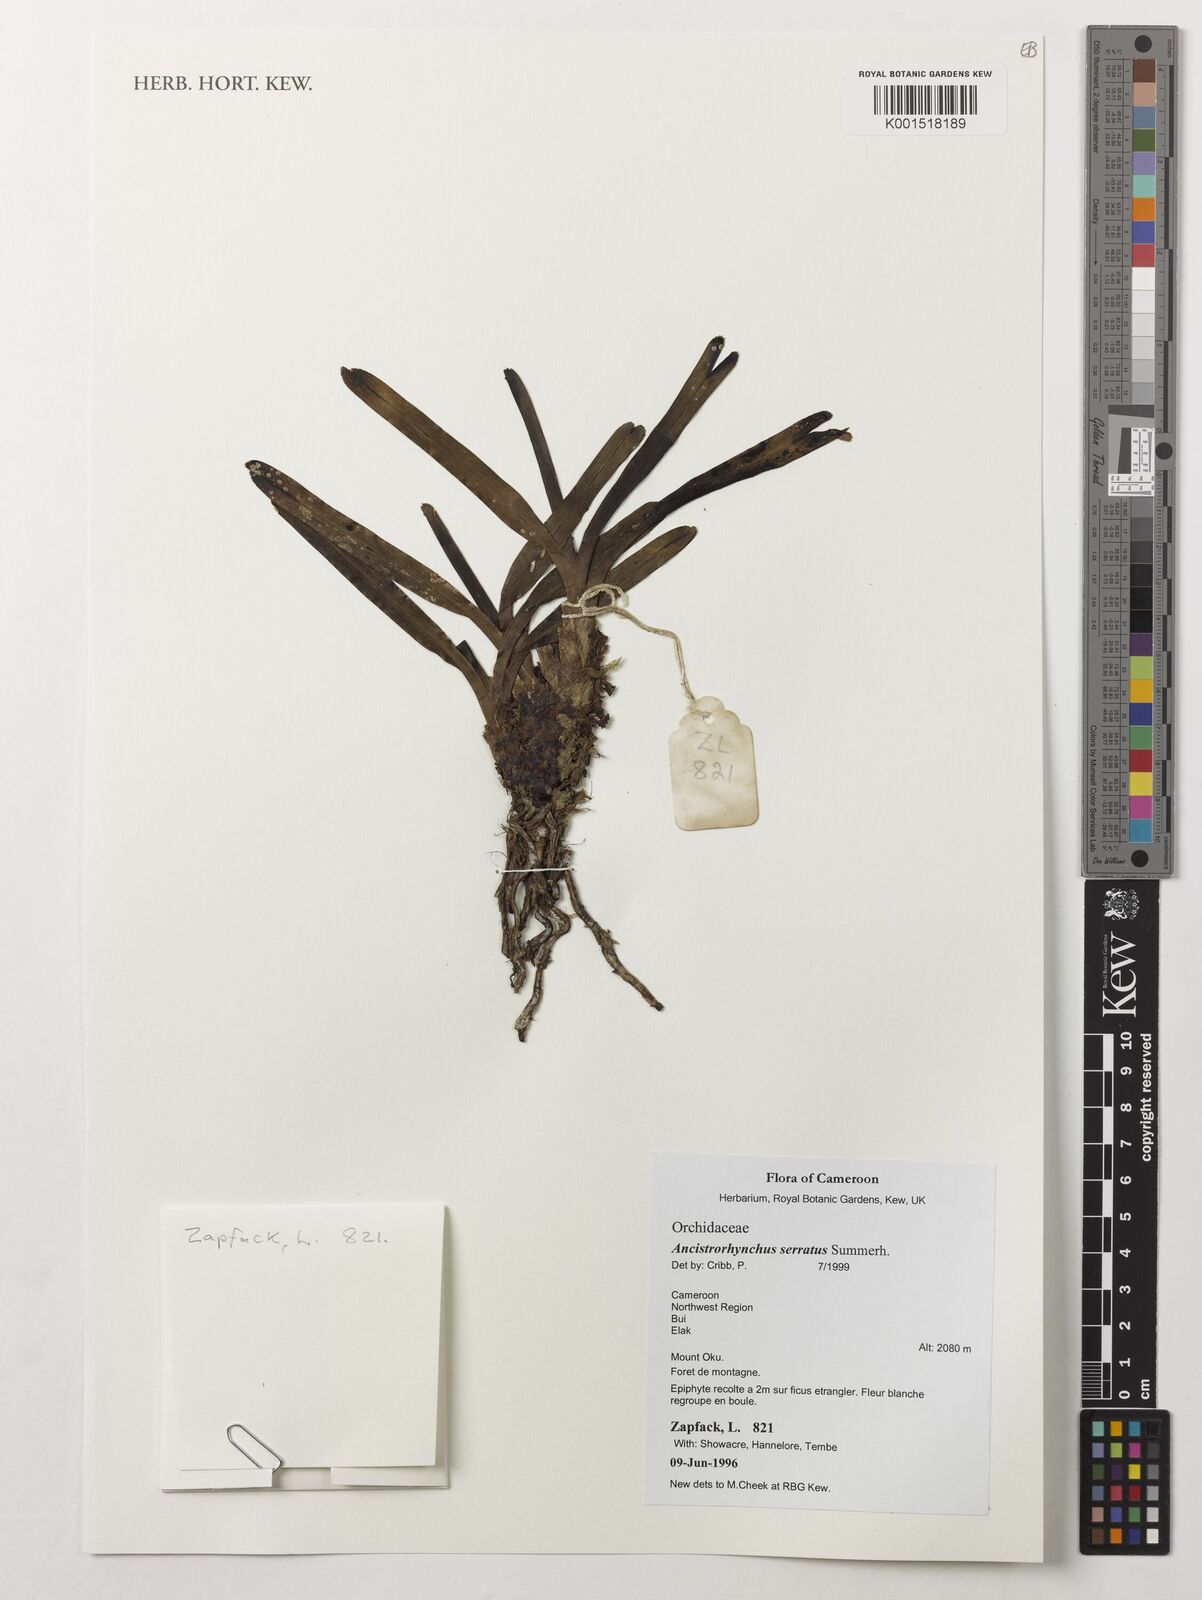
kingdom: Plantae
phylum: Tracheophyta
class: Liliopsida
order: Asparagales
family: Orchidaceae
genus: Ancistrorhynchus
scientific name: Ancistrorhynchus serratus
